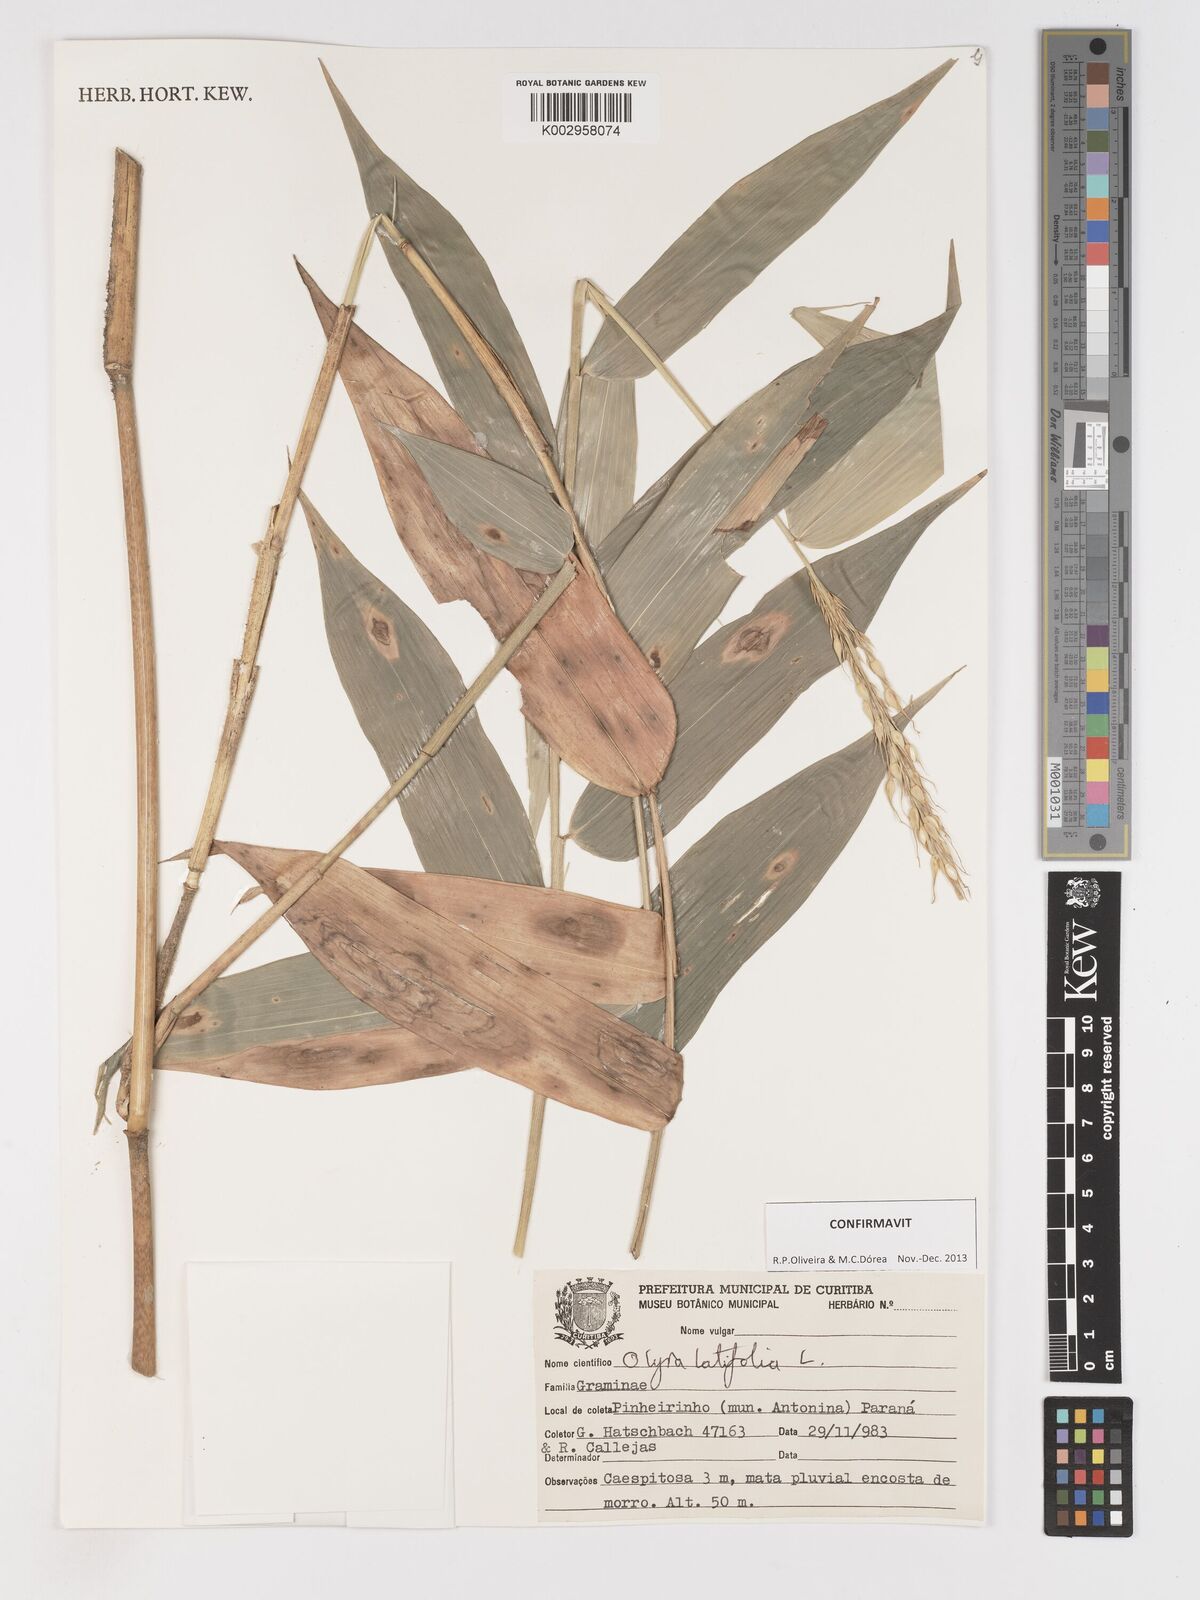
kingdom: Plantae
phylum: Tracheophyta
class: Liliopsida
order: Poales
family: Poaceae
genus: Olyra
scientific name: Olyra latifolia
